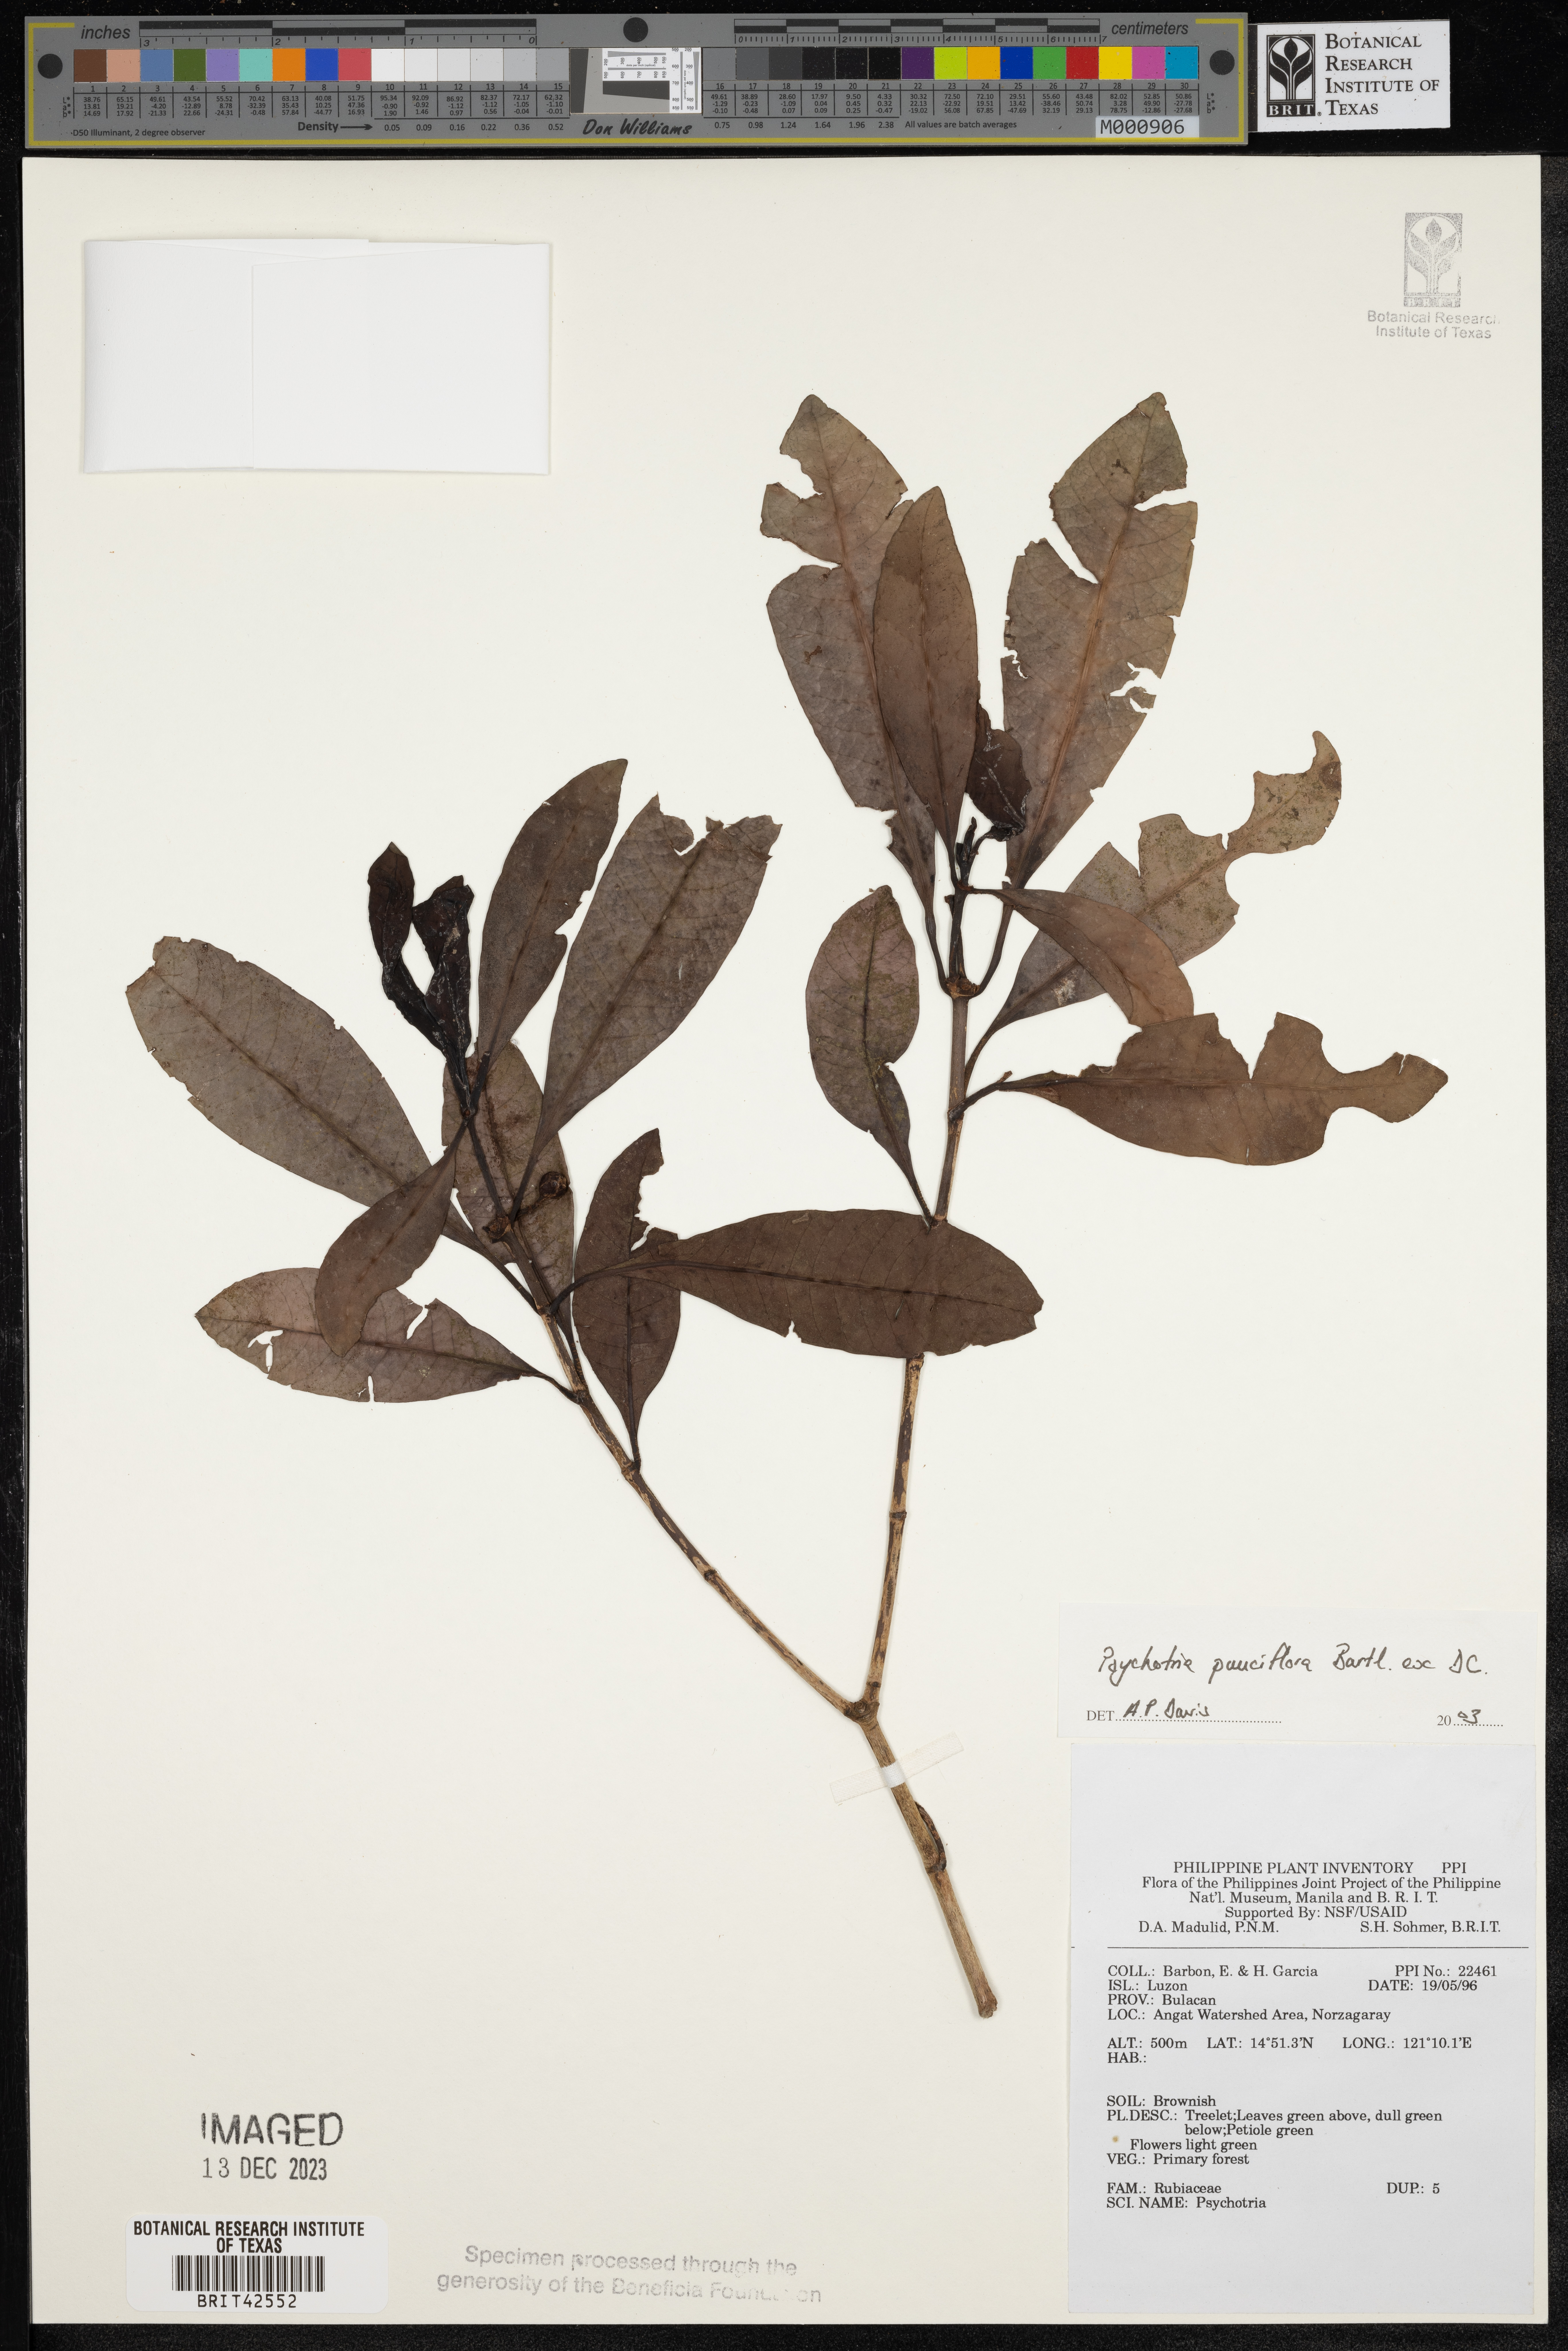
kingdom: Plantae
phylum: Tracheophyta
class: Magnoliopsida
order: Gentianales
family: Rubiaceae
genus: Psychotria
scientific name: Psychotria subobliqua
